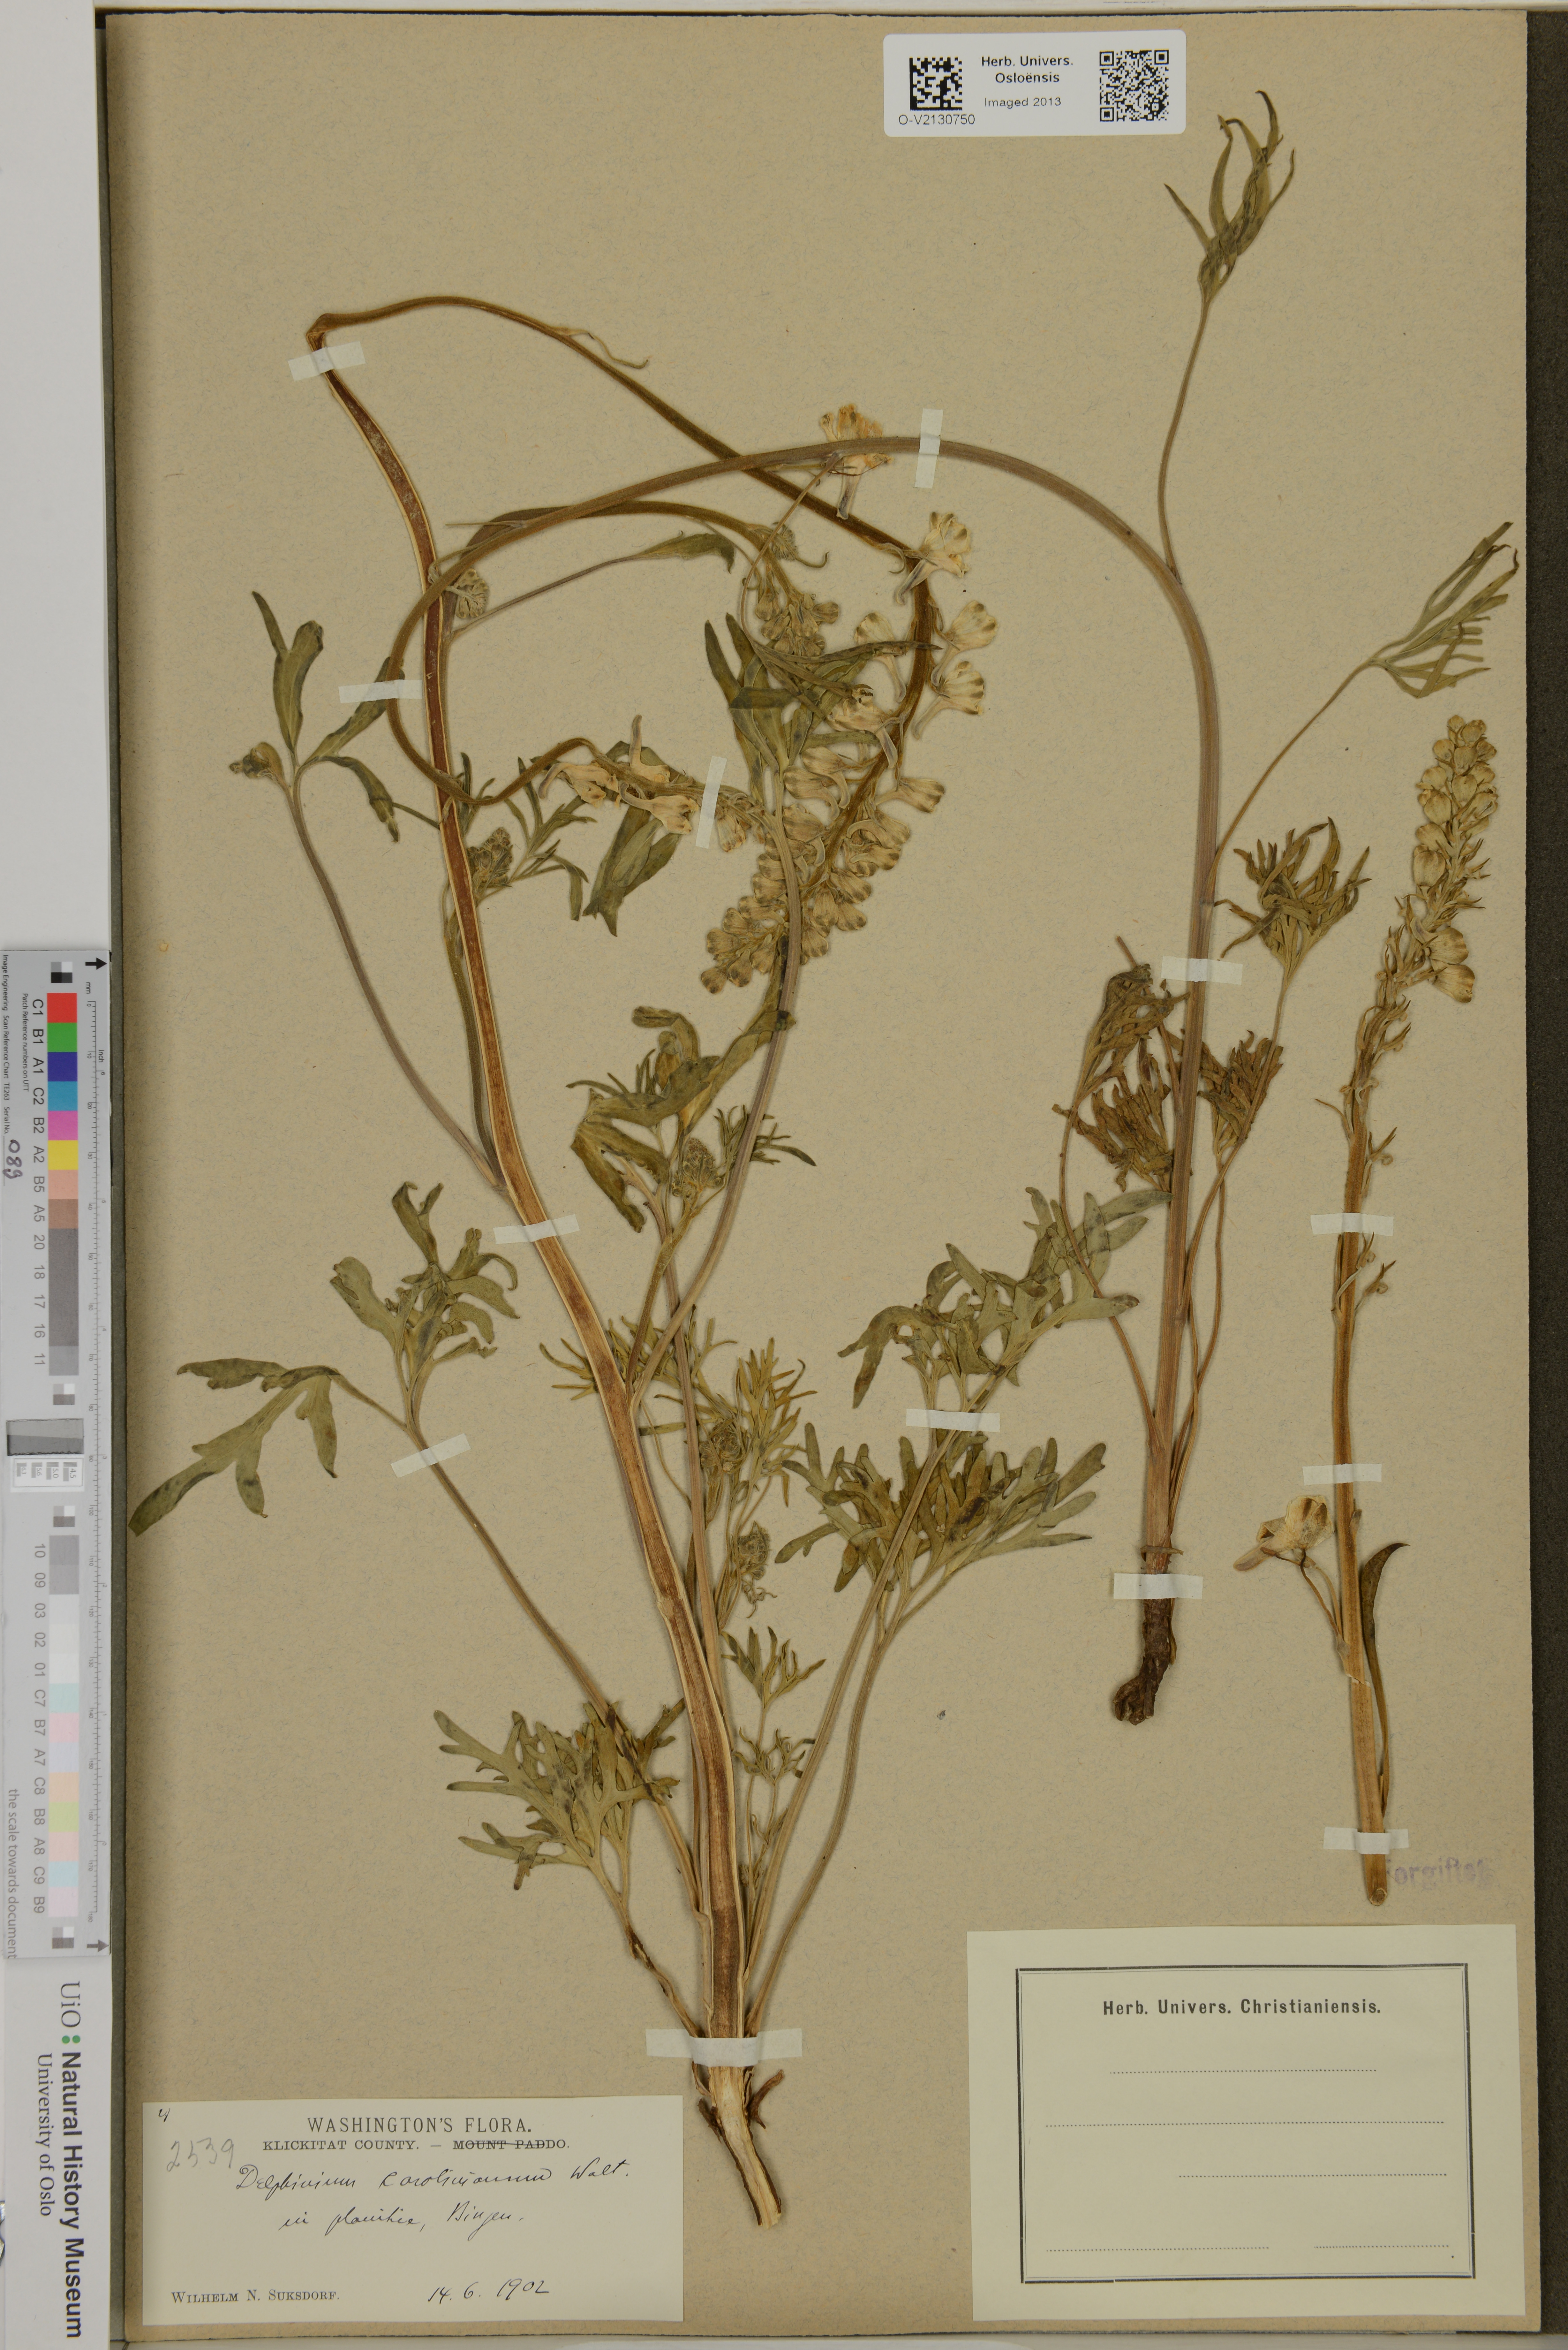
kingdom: Plantae
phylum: Tracheophyta
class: Magnoliopsida
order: Ranunculales
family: Ranunculaceae
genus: Delphinium
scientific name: Delphinium carolinianum
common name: Carolina larkspur
